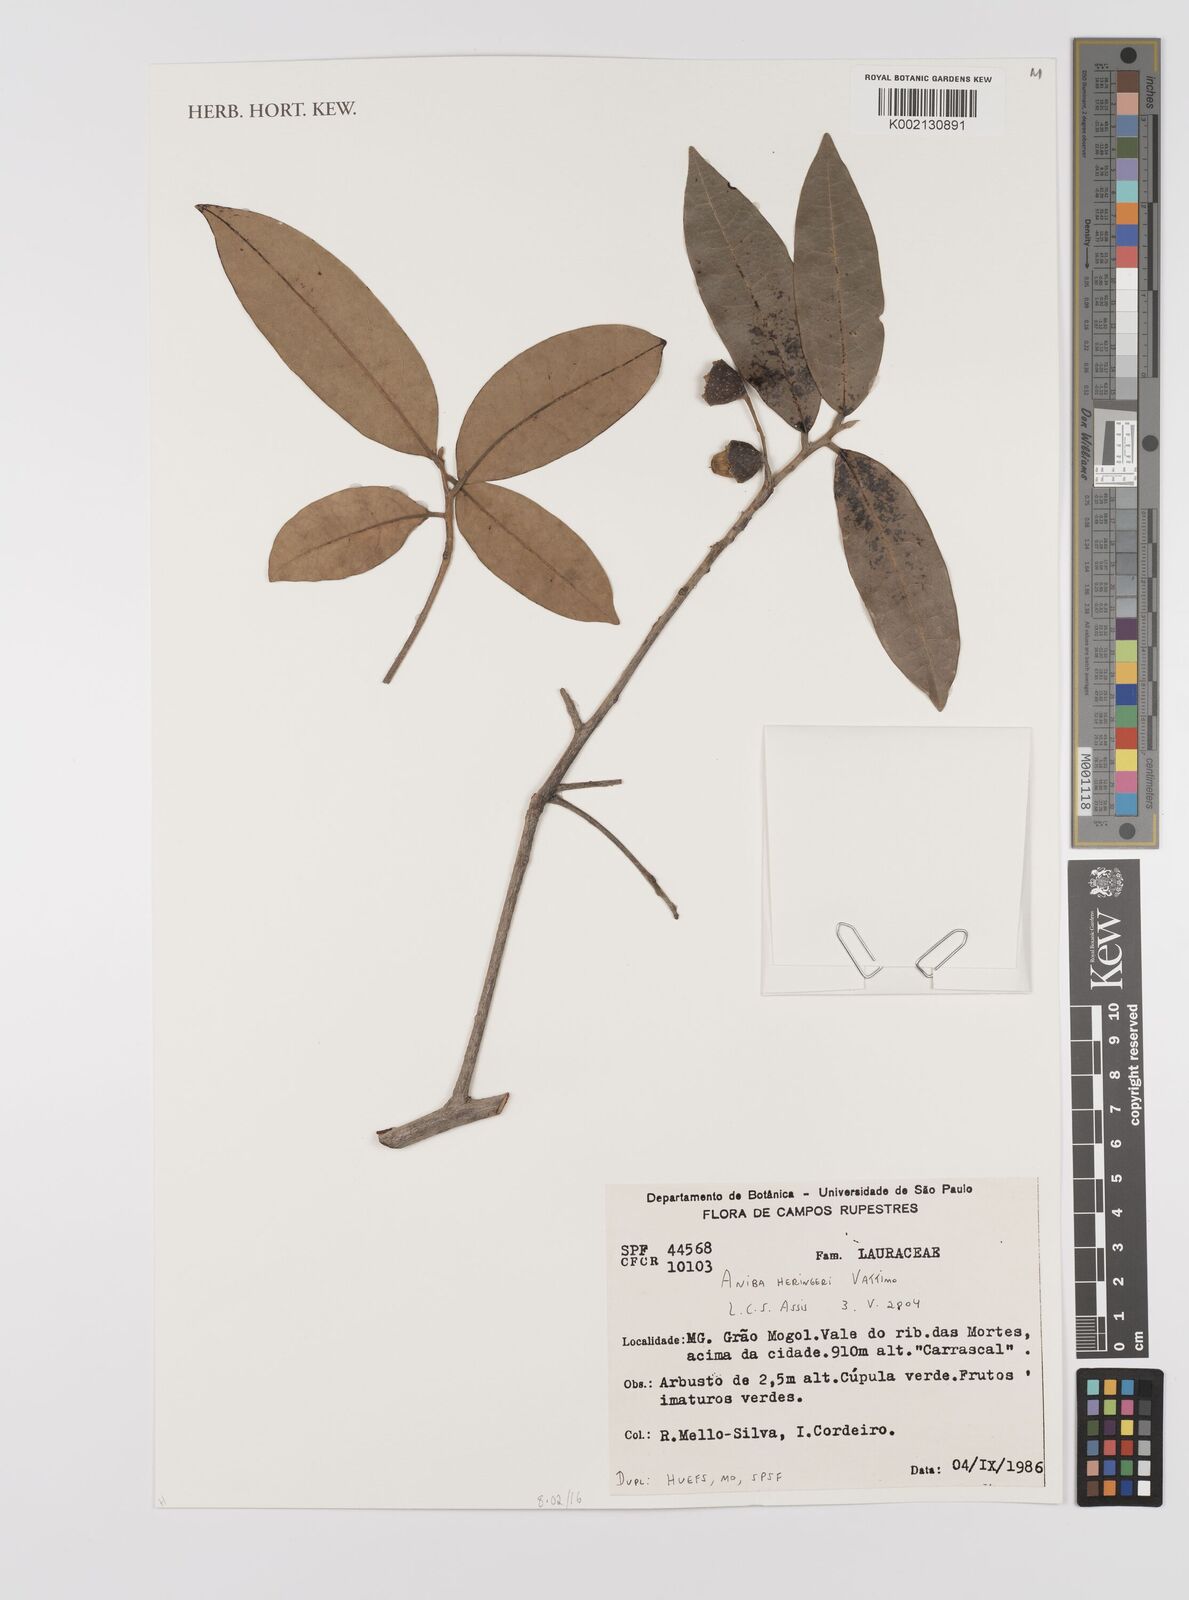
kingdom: Plantae
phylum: Tracheophyta
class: Magnoliopsida
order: Laurales
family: Lauraceae
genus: Aniba
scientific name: Aniba heringeri
